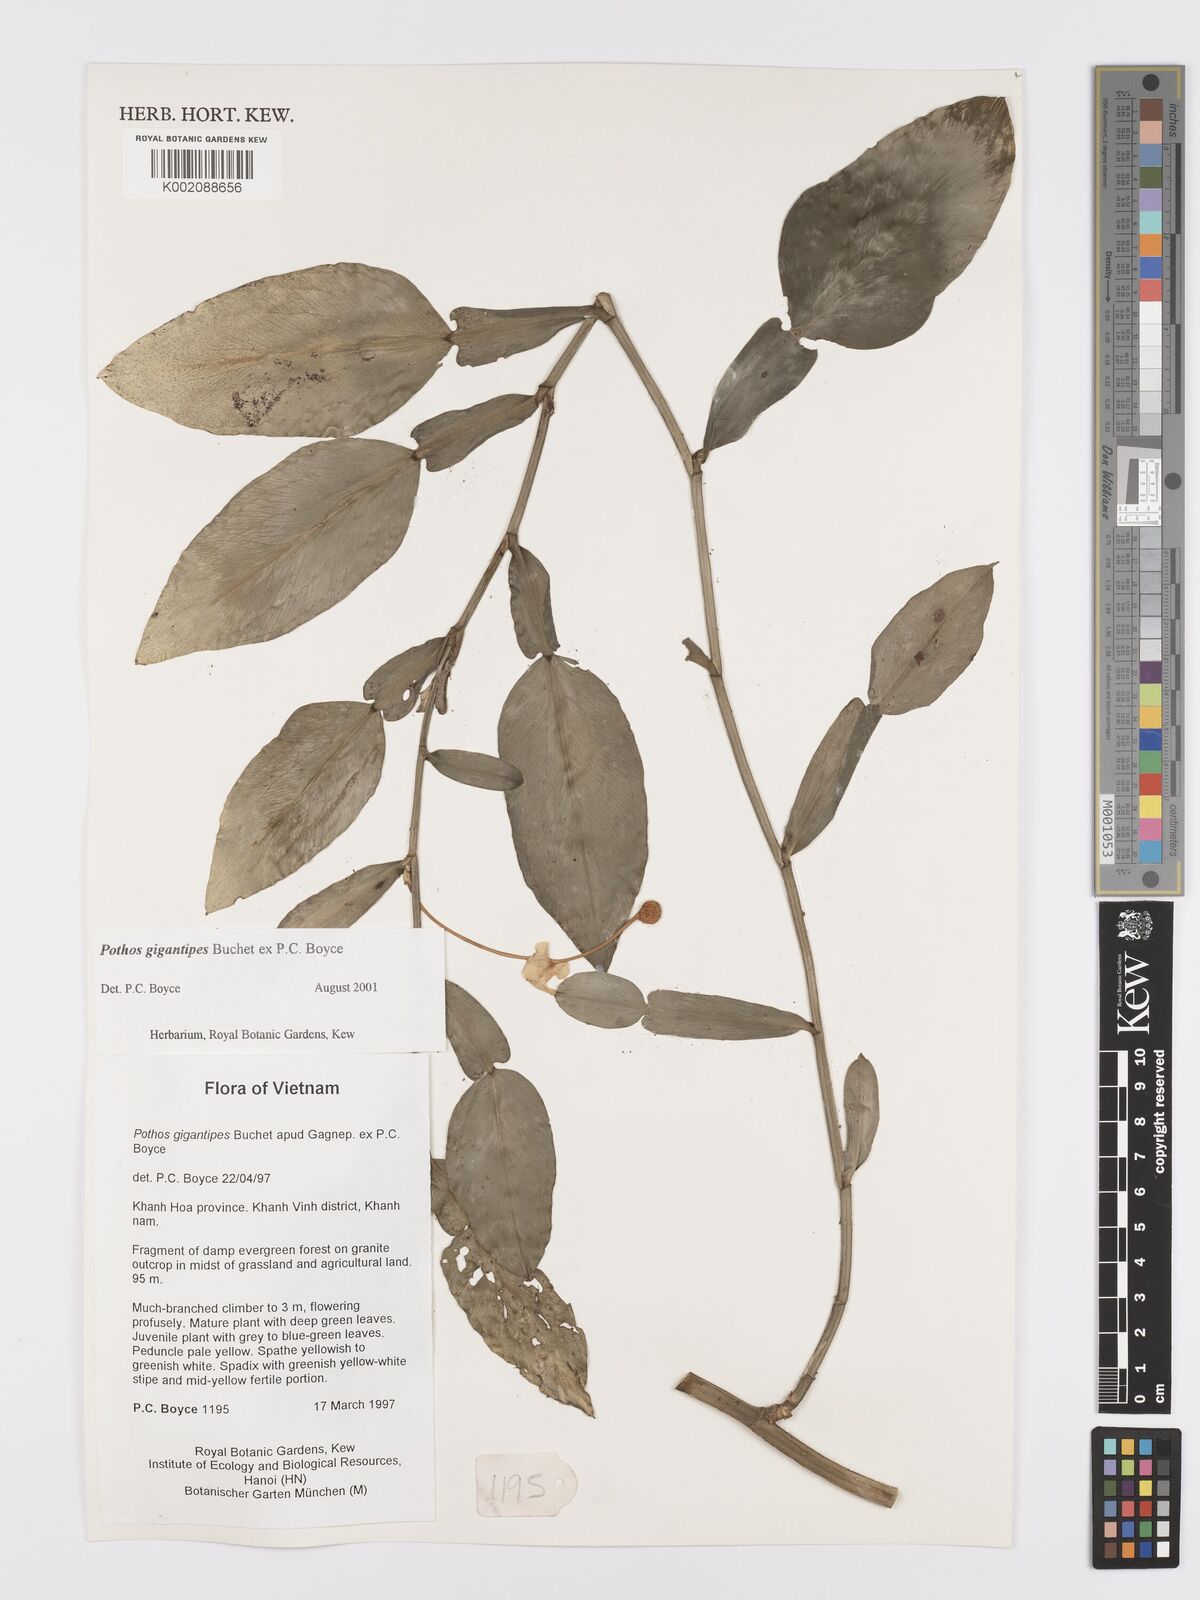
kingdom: Plantae
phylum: Tracheophyta
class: Liliopsida
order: Alismatales
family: Araceae
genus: Pothos
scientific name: Pothos gigantipes
